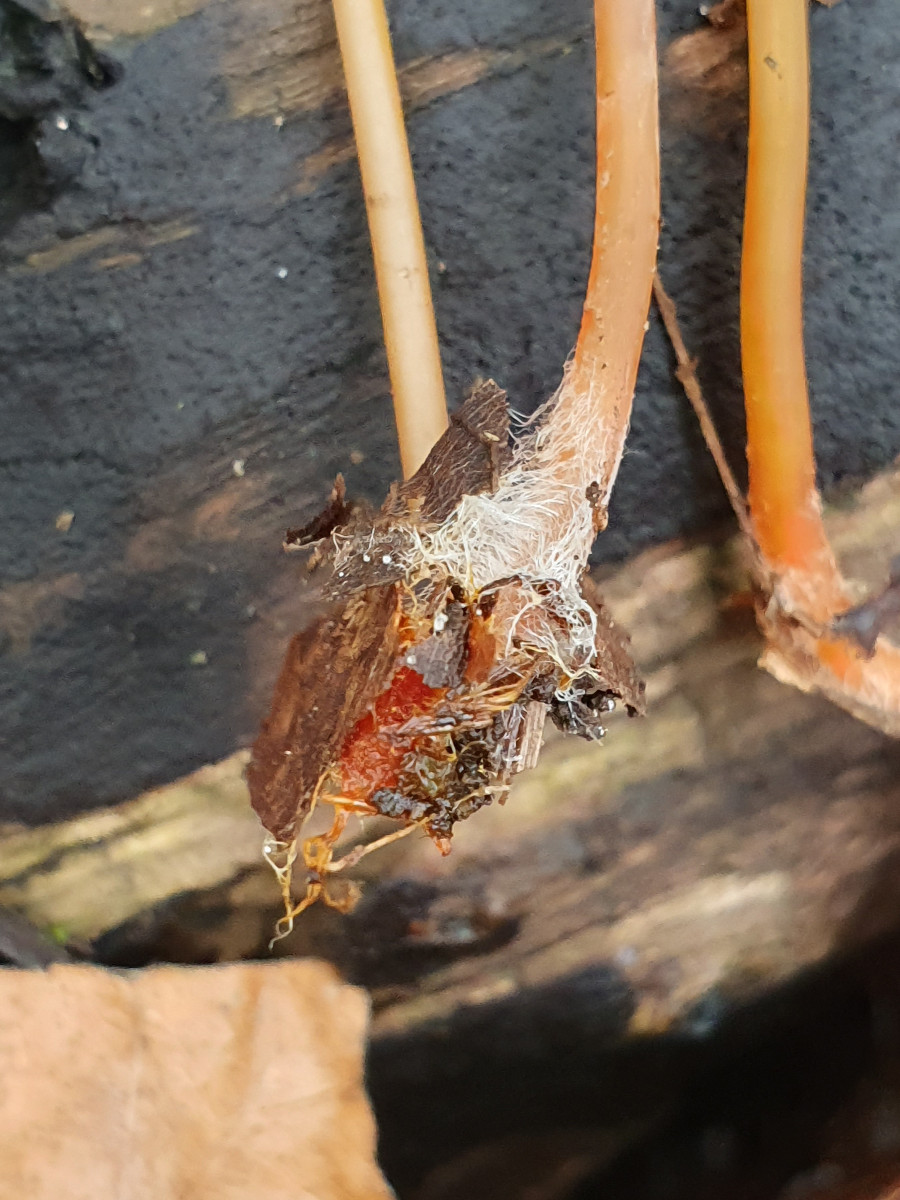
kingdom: Fungi
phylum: Basidiomycota
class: Agaricomycetes
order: Agaricales
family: Mycenaceae
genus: Mycena
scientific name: Mycena crocata
